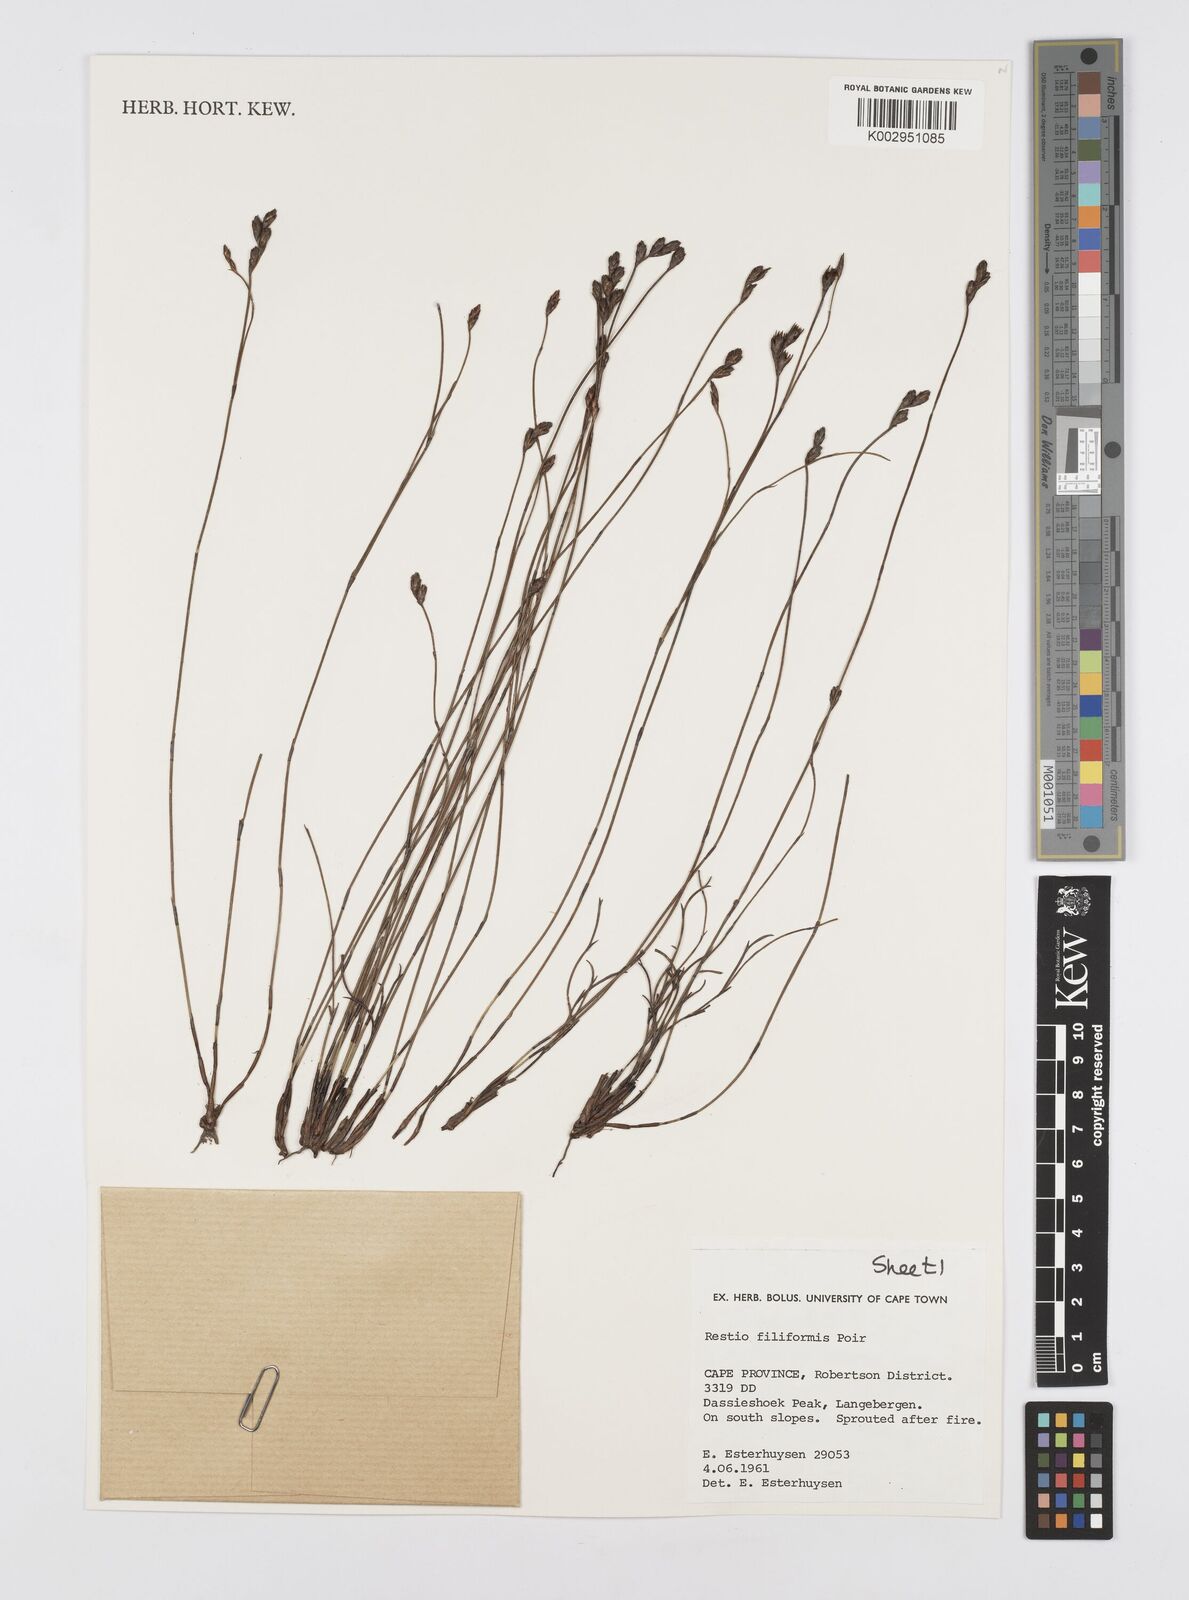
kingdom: Plantae
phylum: Tracheophyta
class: Liliopsida
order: Poales
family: Restionaceae
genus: Restio
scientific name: Restio filiformis
